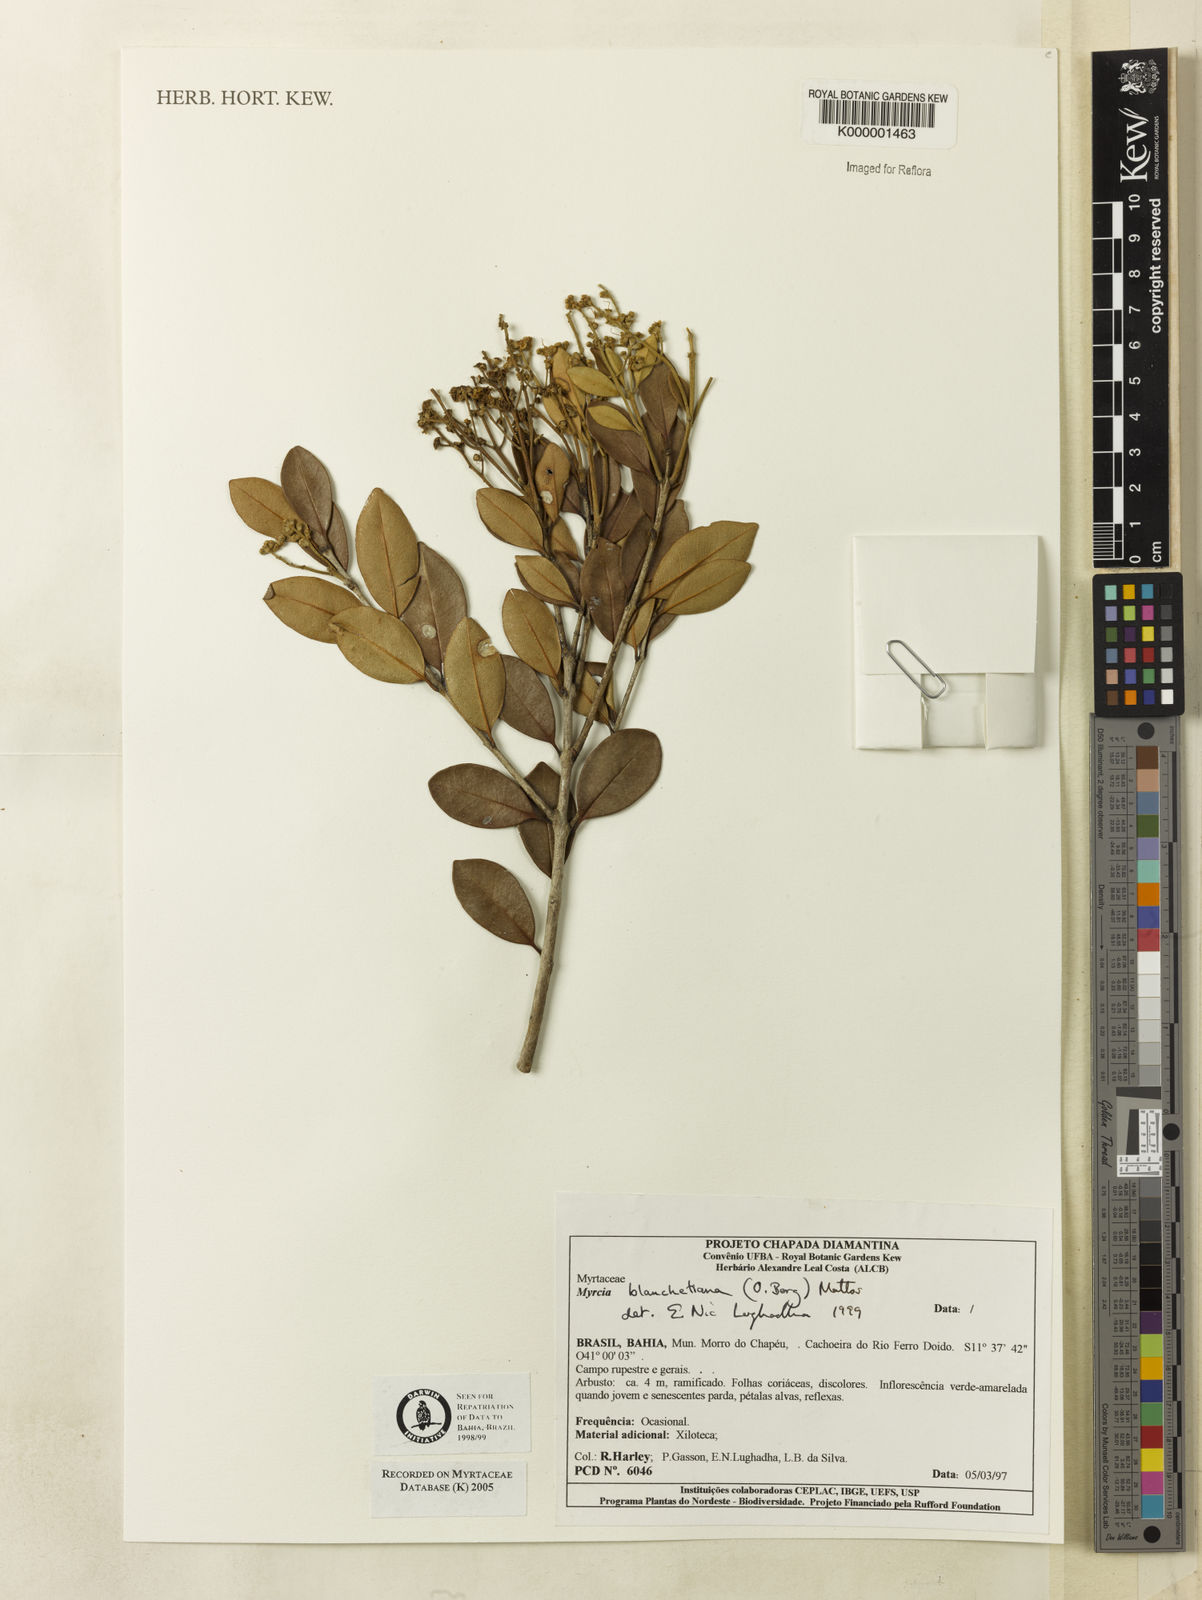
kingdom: Plantae
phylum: Tracheophyta
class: Magnoliopsida
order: Myrtales
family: Myrtaceae
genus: Myrcia
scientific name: Myrcia blanchetiana
